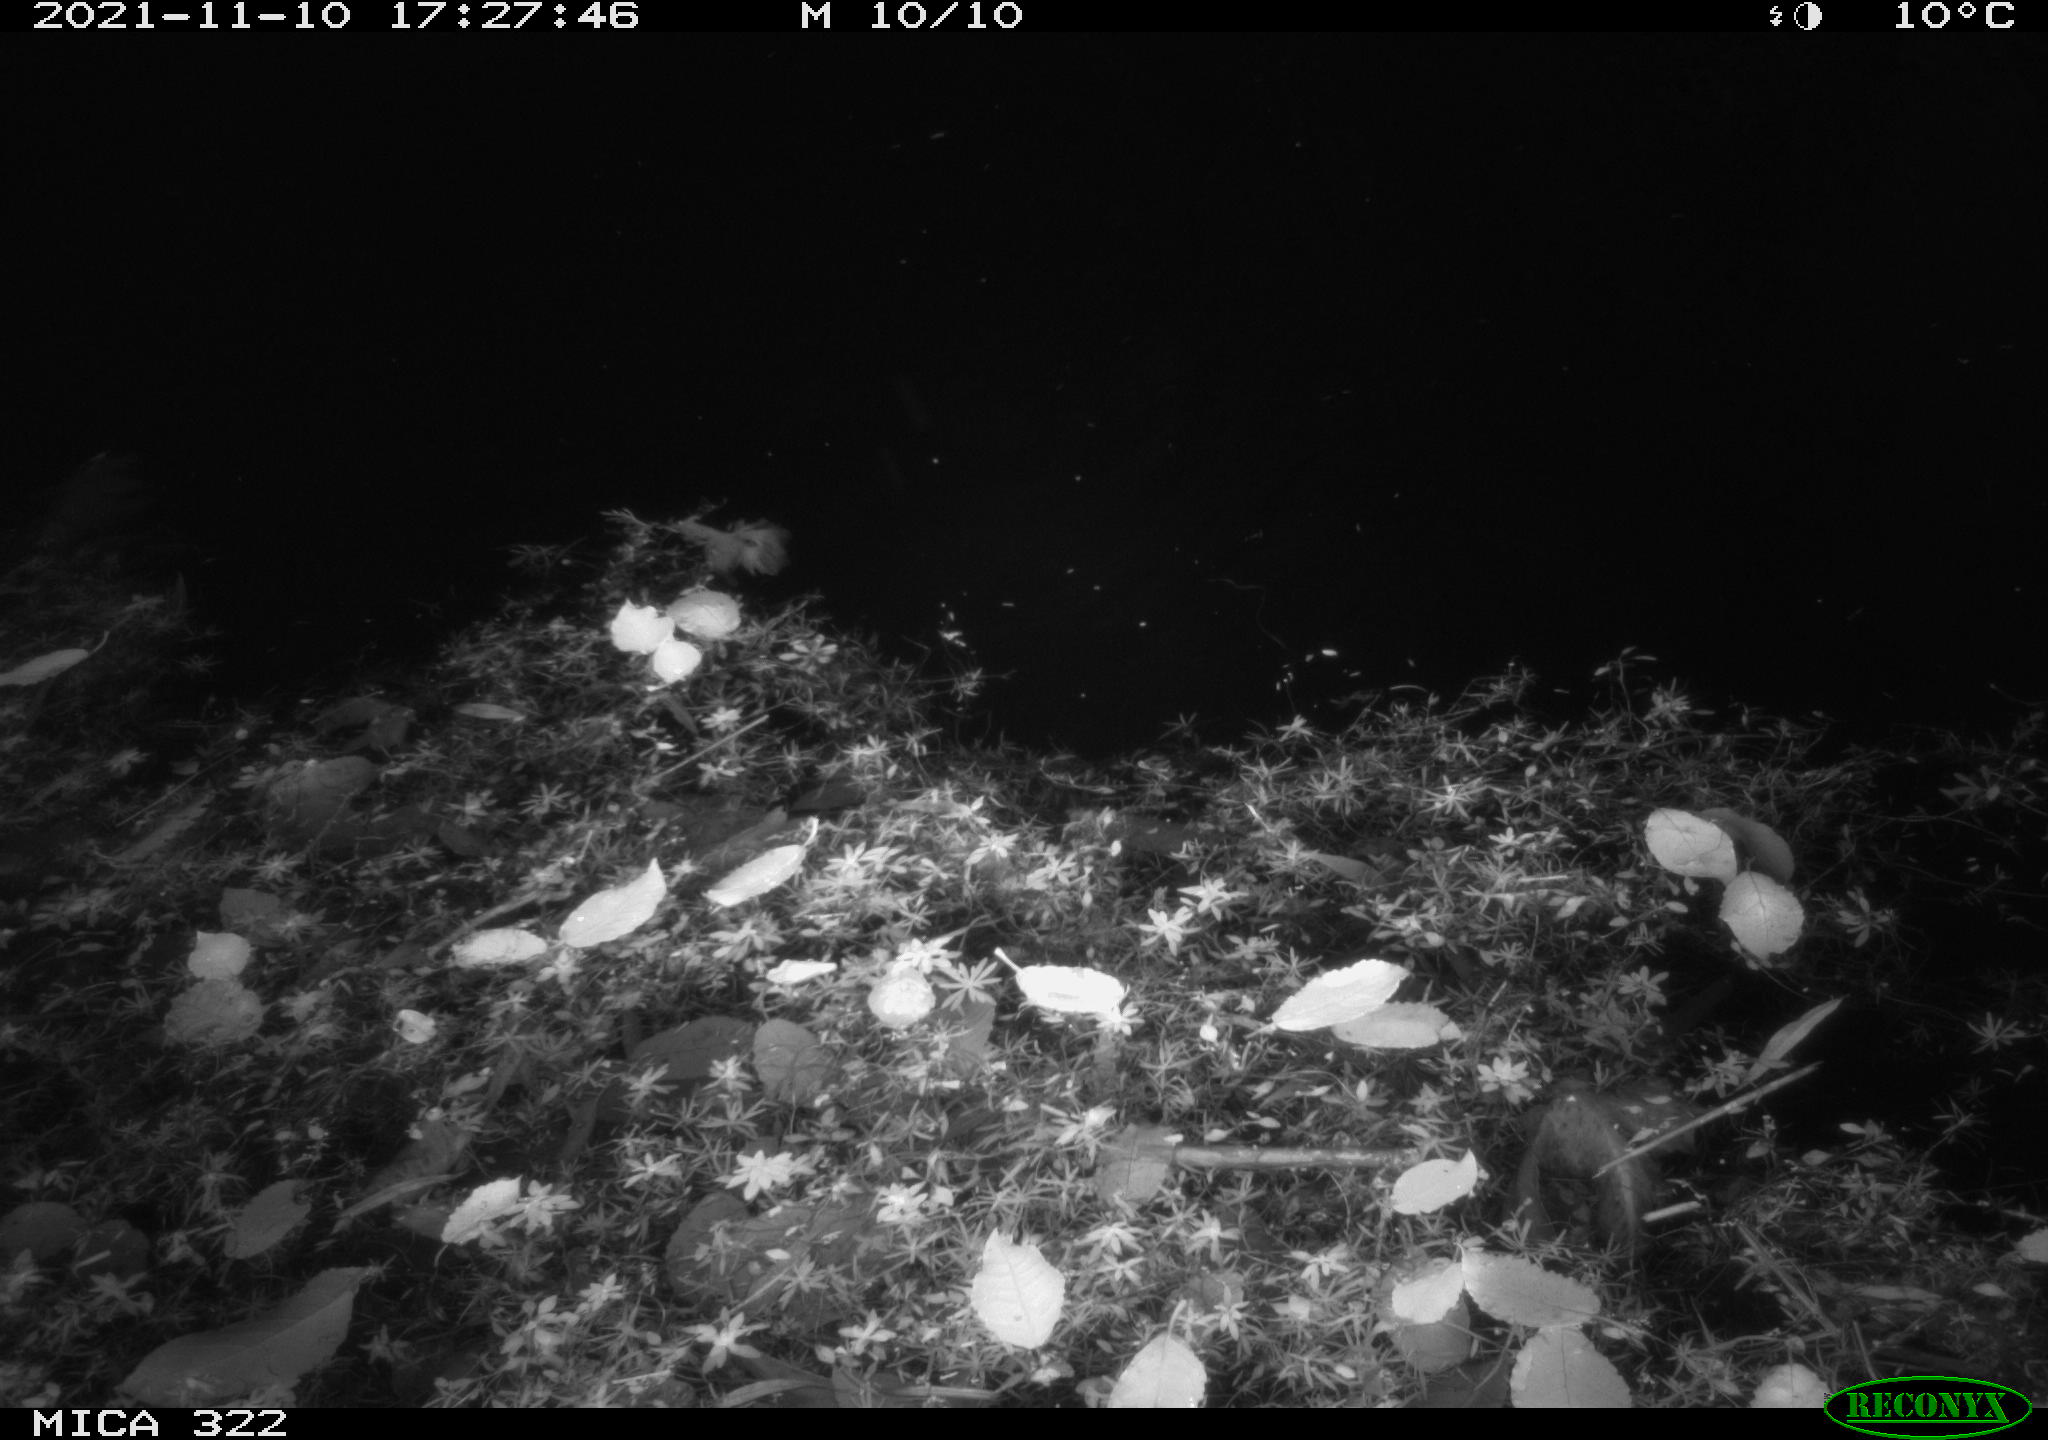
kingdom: Animalia
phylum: Chordata
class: Mammalia
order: Rodentia
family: Muridae
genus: Rattus
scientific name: Rattus norvegicus
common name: Brown rat
